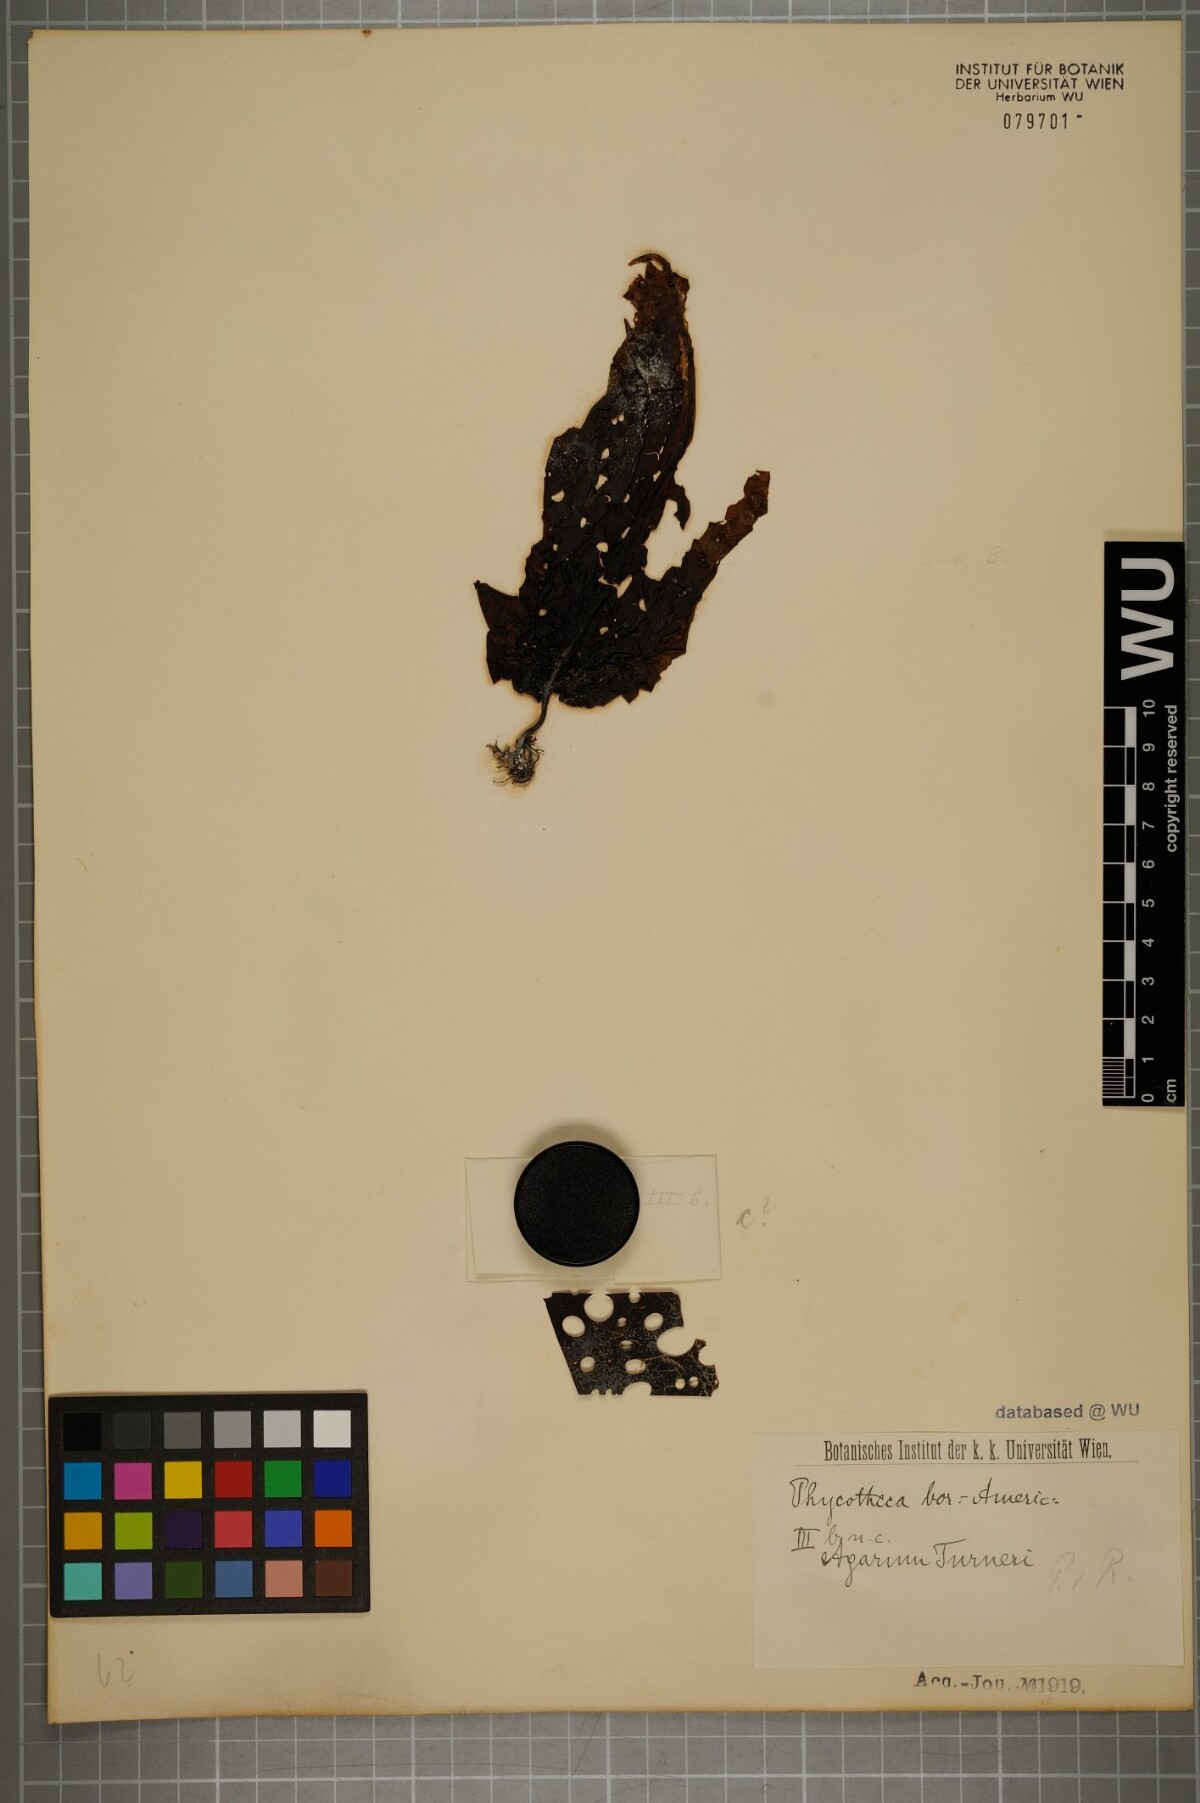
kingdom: Chromista
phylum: Ochrophyta
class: Phaeophyceae
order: Laminariales
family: Costariaceae
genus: Agarum
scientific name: Agarum turneri
